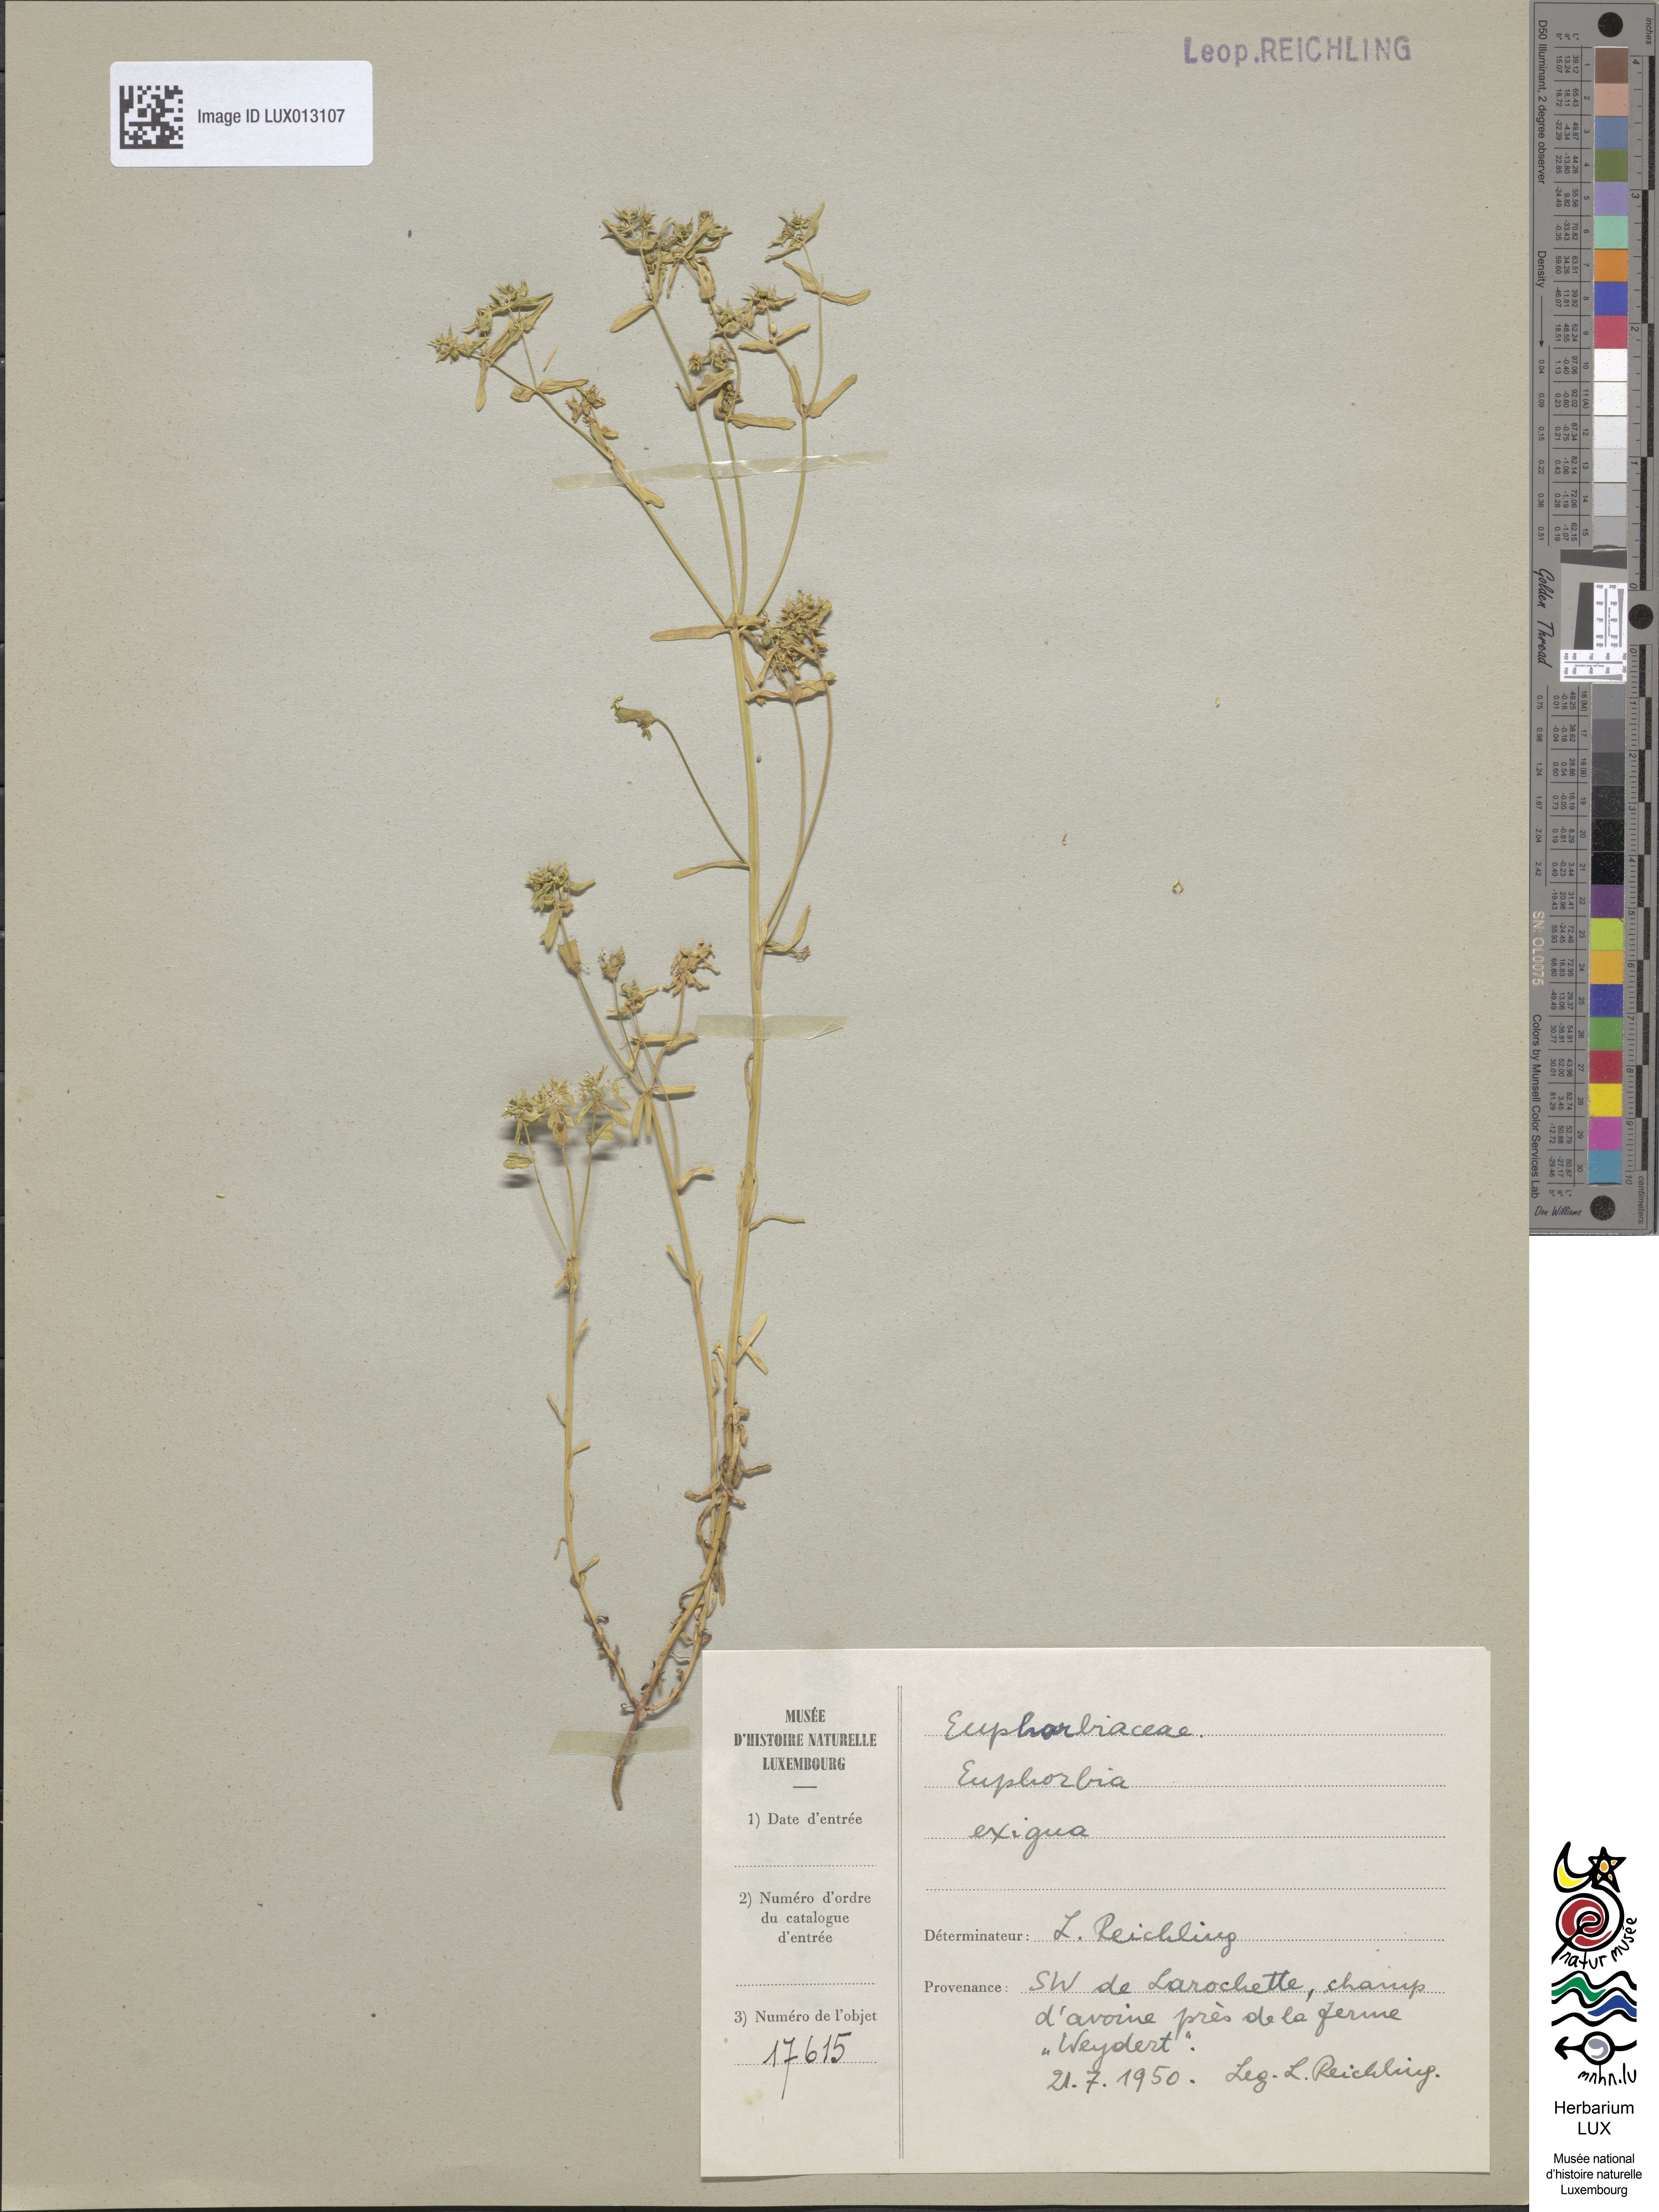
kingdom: Plantae
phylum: Tracheophyta
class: Magnoliopsida
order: Malpighiales
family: Euphorbiaceae
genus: Euphorbia
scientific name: Euphorbia exigua
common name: Dwarf spurge
